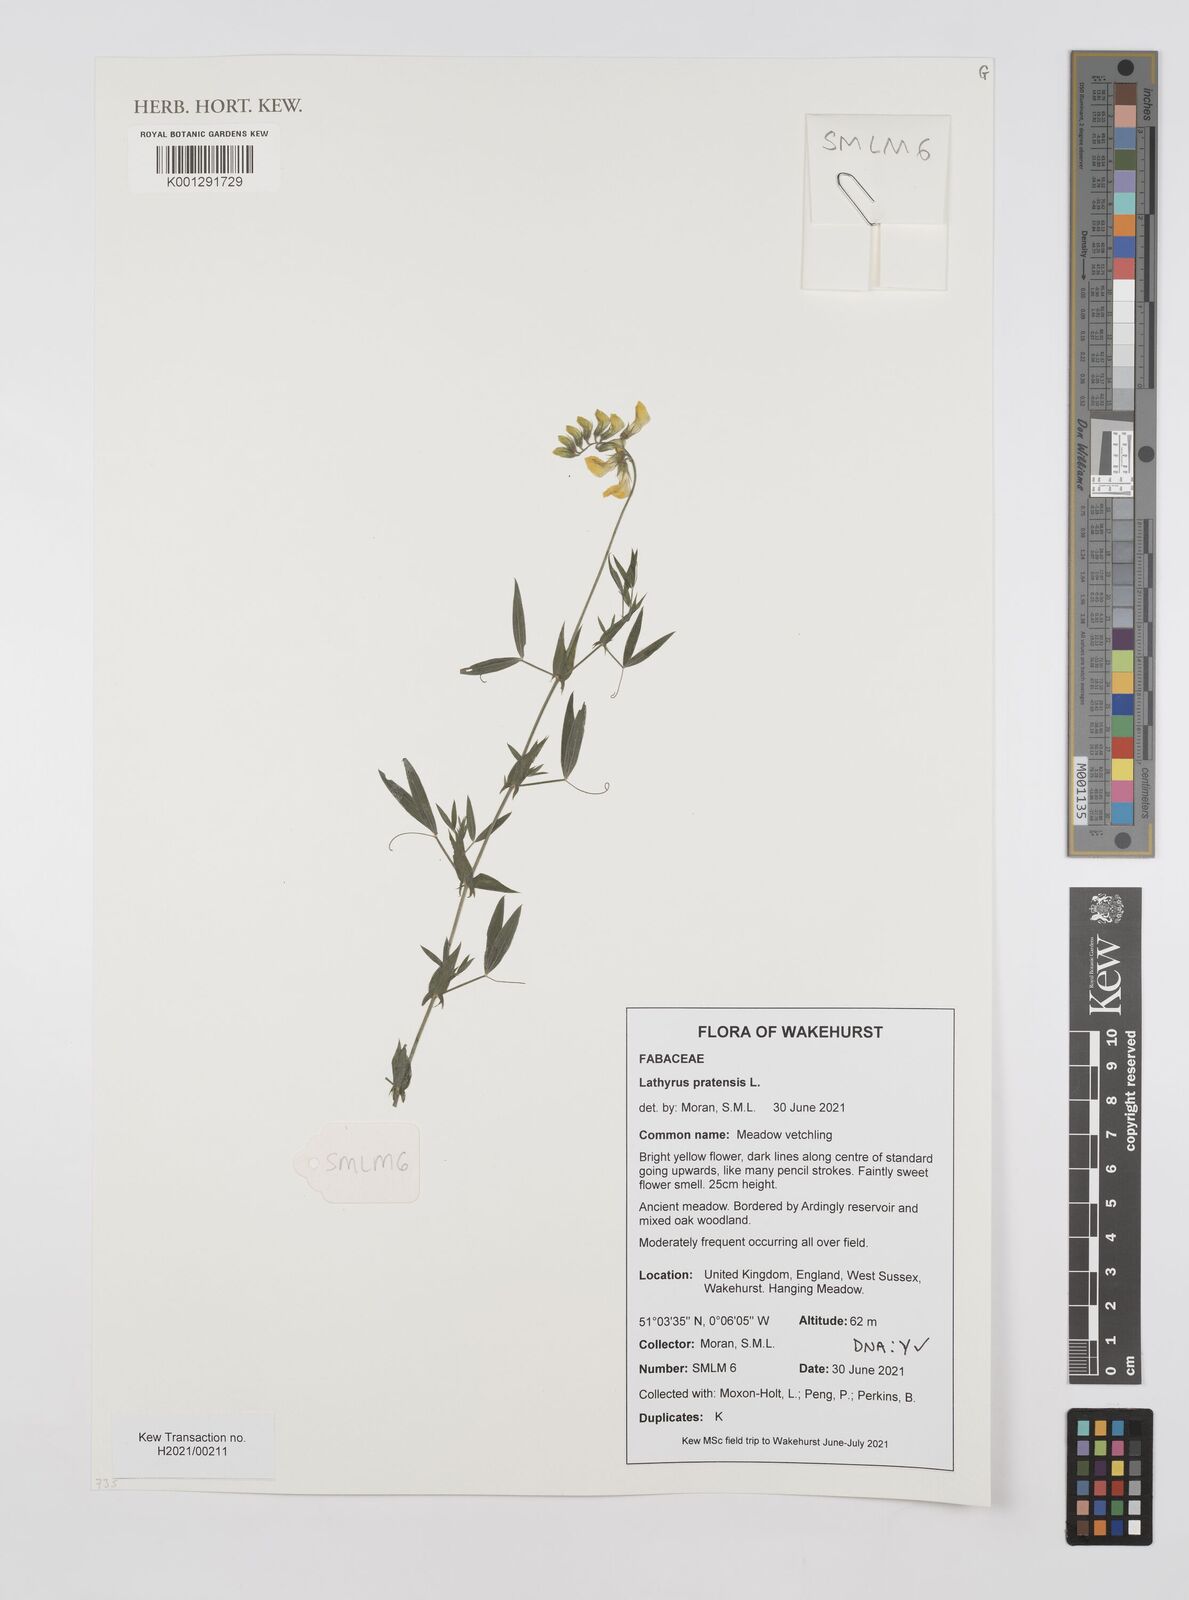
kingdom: Plantae
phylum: Tracheophyta
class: Magnoliopsida
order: Fabales
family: Fabaceae
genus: Lathyrus
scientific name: Lathyrus pratensis
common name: Meadow vetchling
